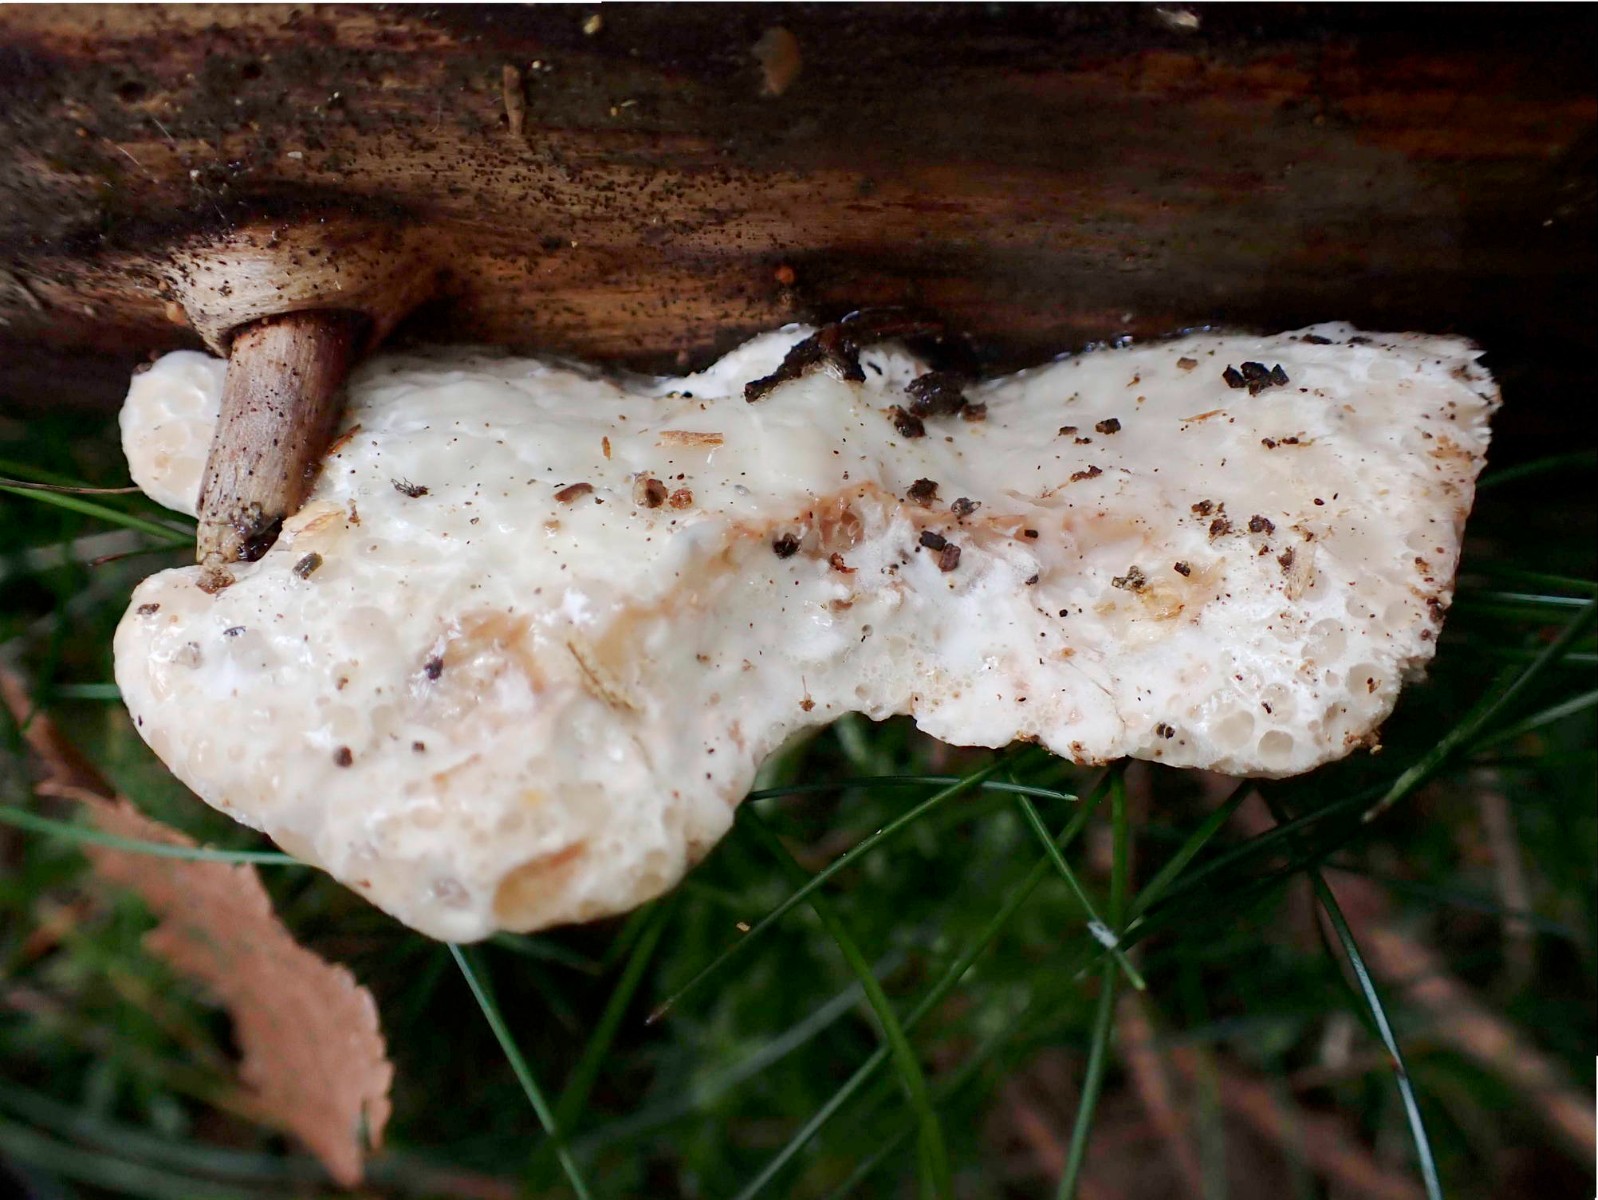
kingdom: Fungi
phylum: Basidiomycota
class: Agaricomycetes
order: Polyporales
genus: Calcipostia
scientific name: Calcipostia guttulata
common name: dråbe-kødporesvamp
